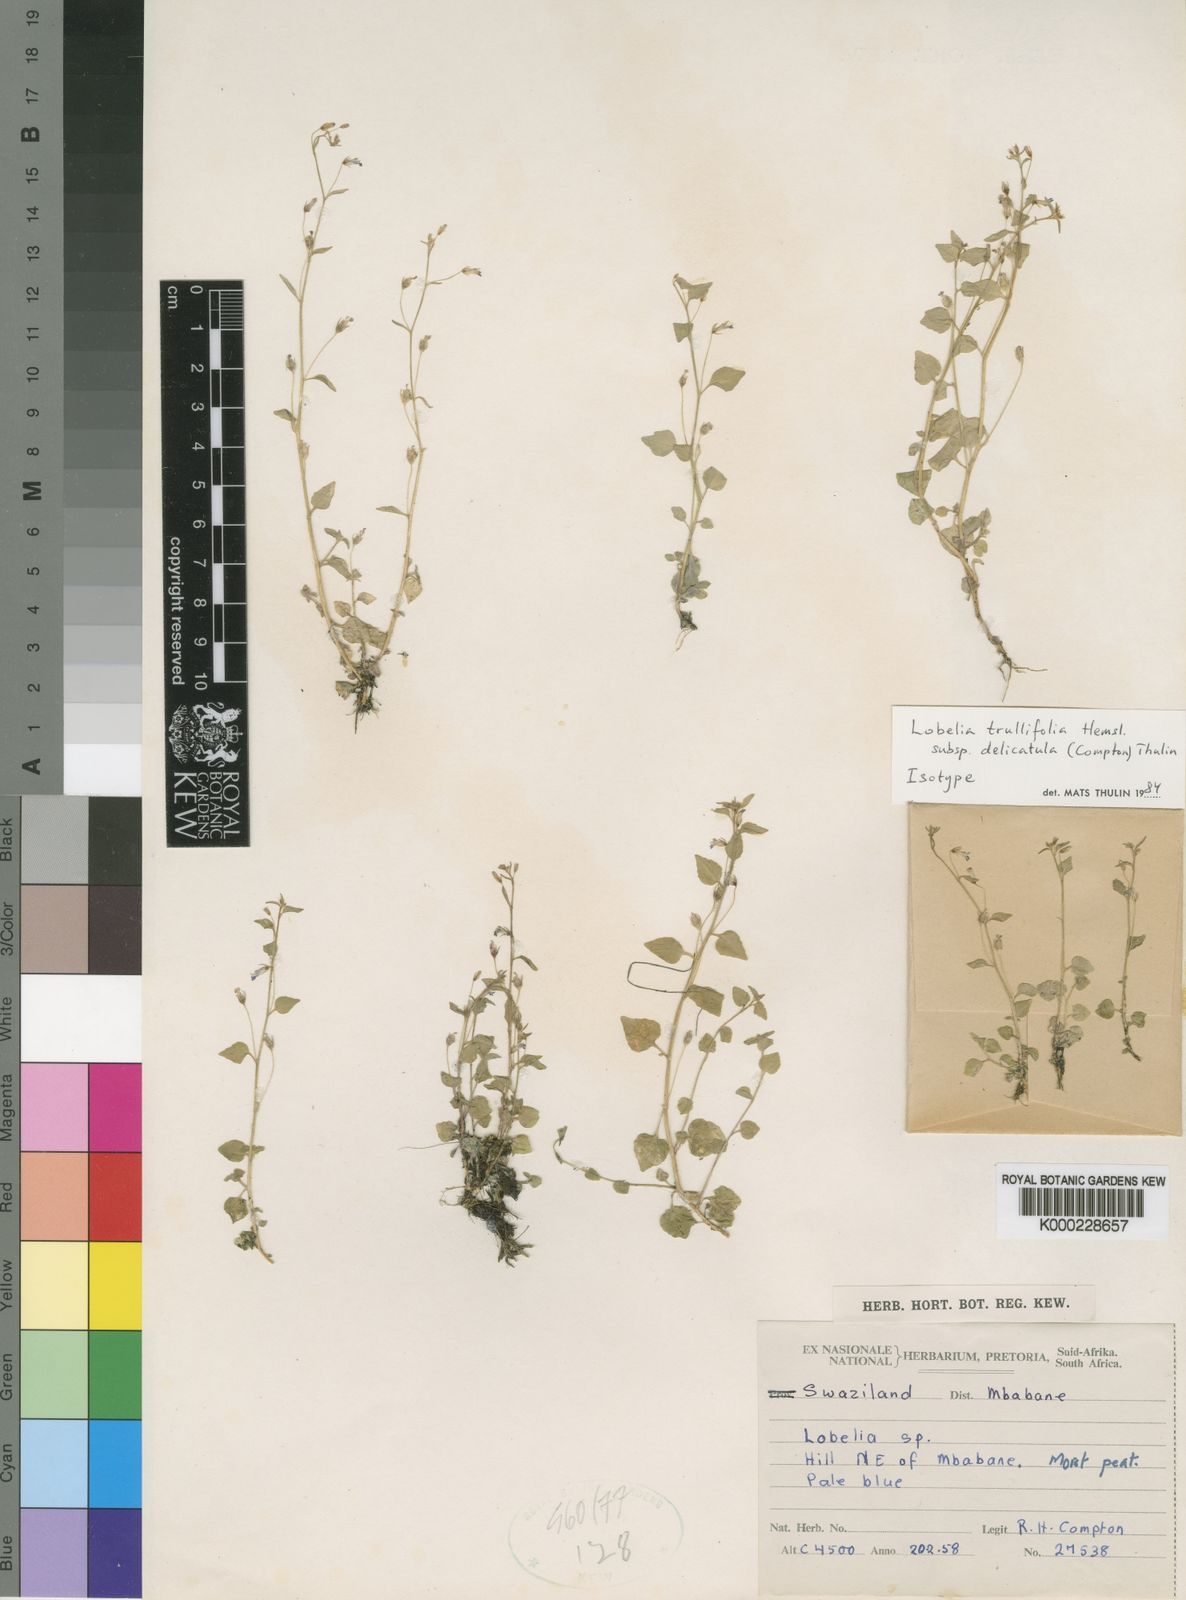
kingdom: Plantae
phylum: Tracheophyta
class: Magnoliopsida
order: Asterales
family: Campanulaceae
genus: Lobelia
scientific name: Lobelia trullifolia
